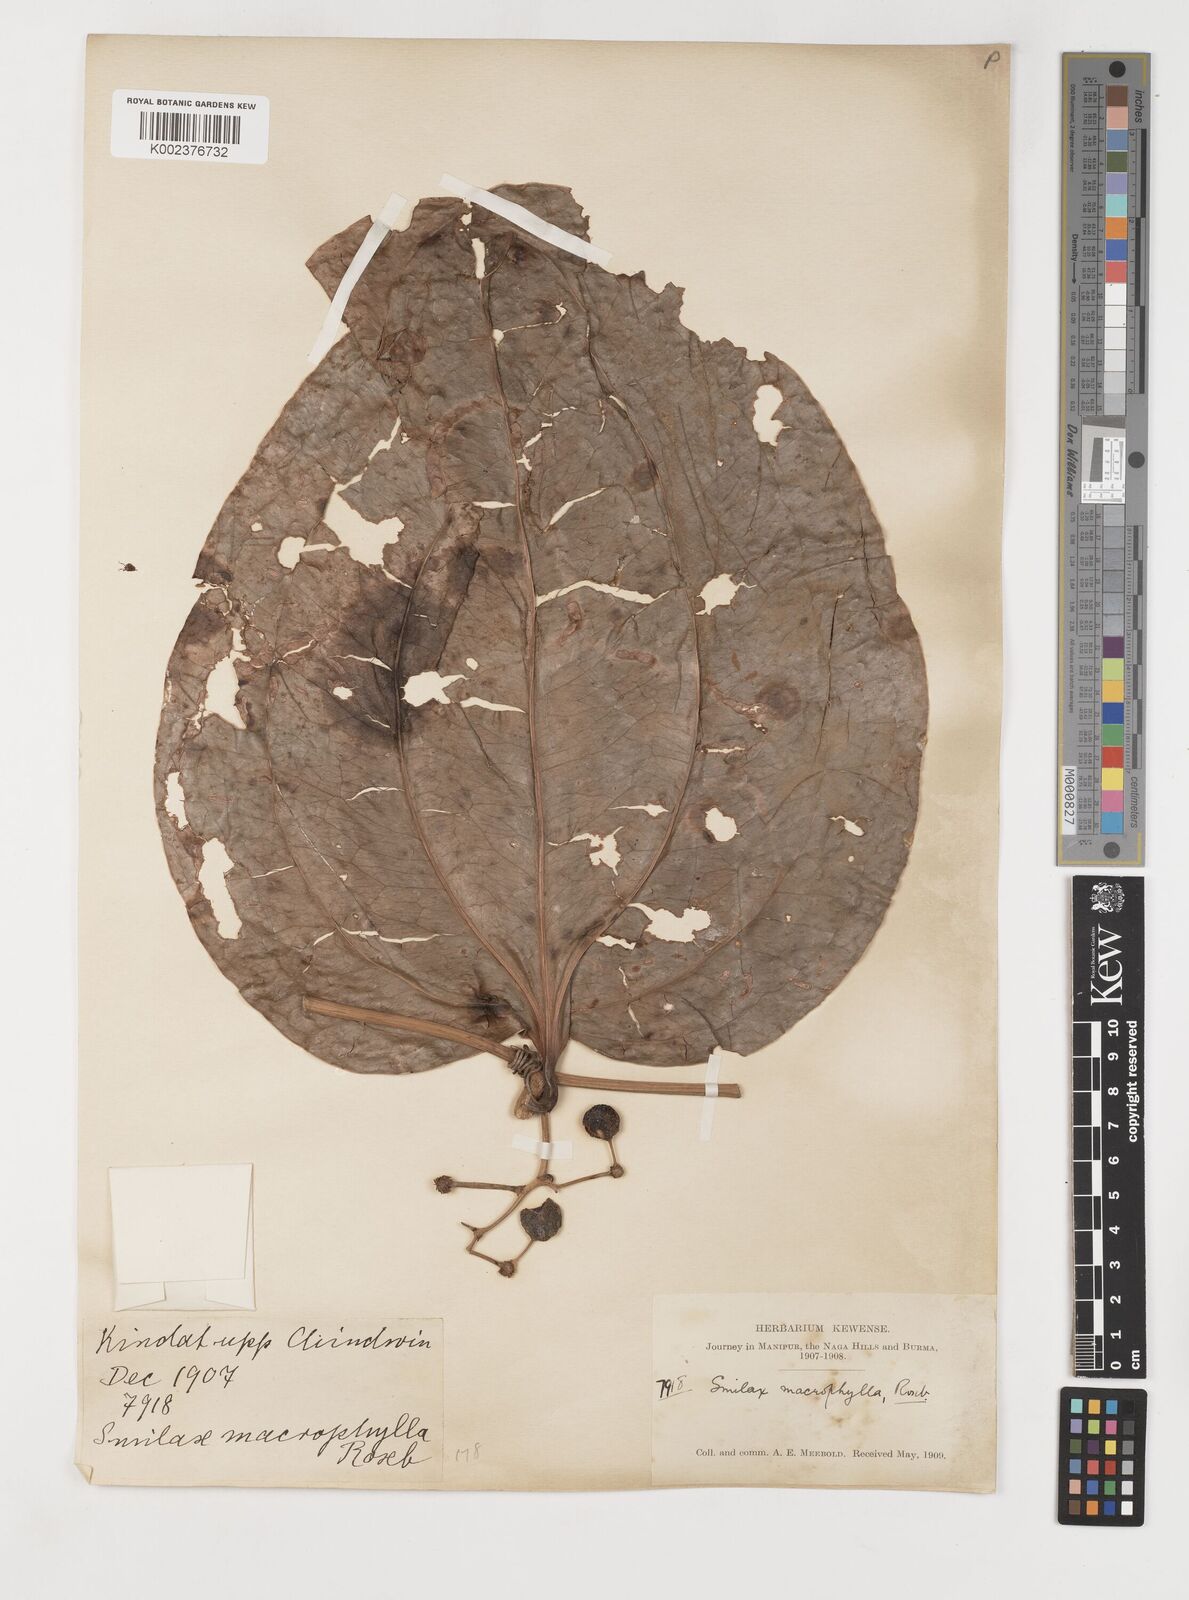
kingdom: Plantae
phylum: Tracheophyta
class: Liliopsida
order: Liliales
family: Smilacaceae
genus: Smilax
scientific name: Smilax ovalifolia
